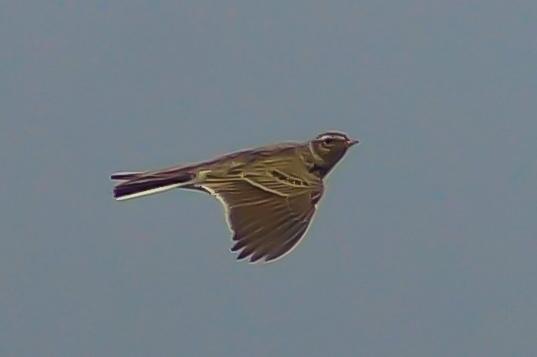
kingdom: Animalia
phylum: Chordata
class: Aves
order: Passeriformes
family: Alaudidae
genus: Alauda
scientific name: Alauda arvensis
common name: Sanglærke
